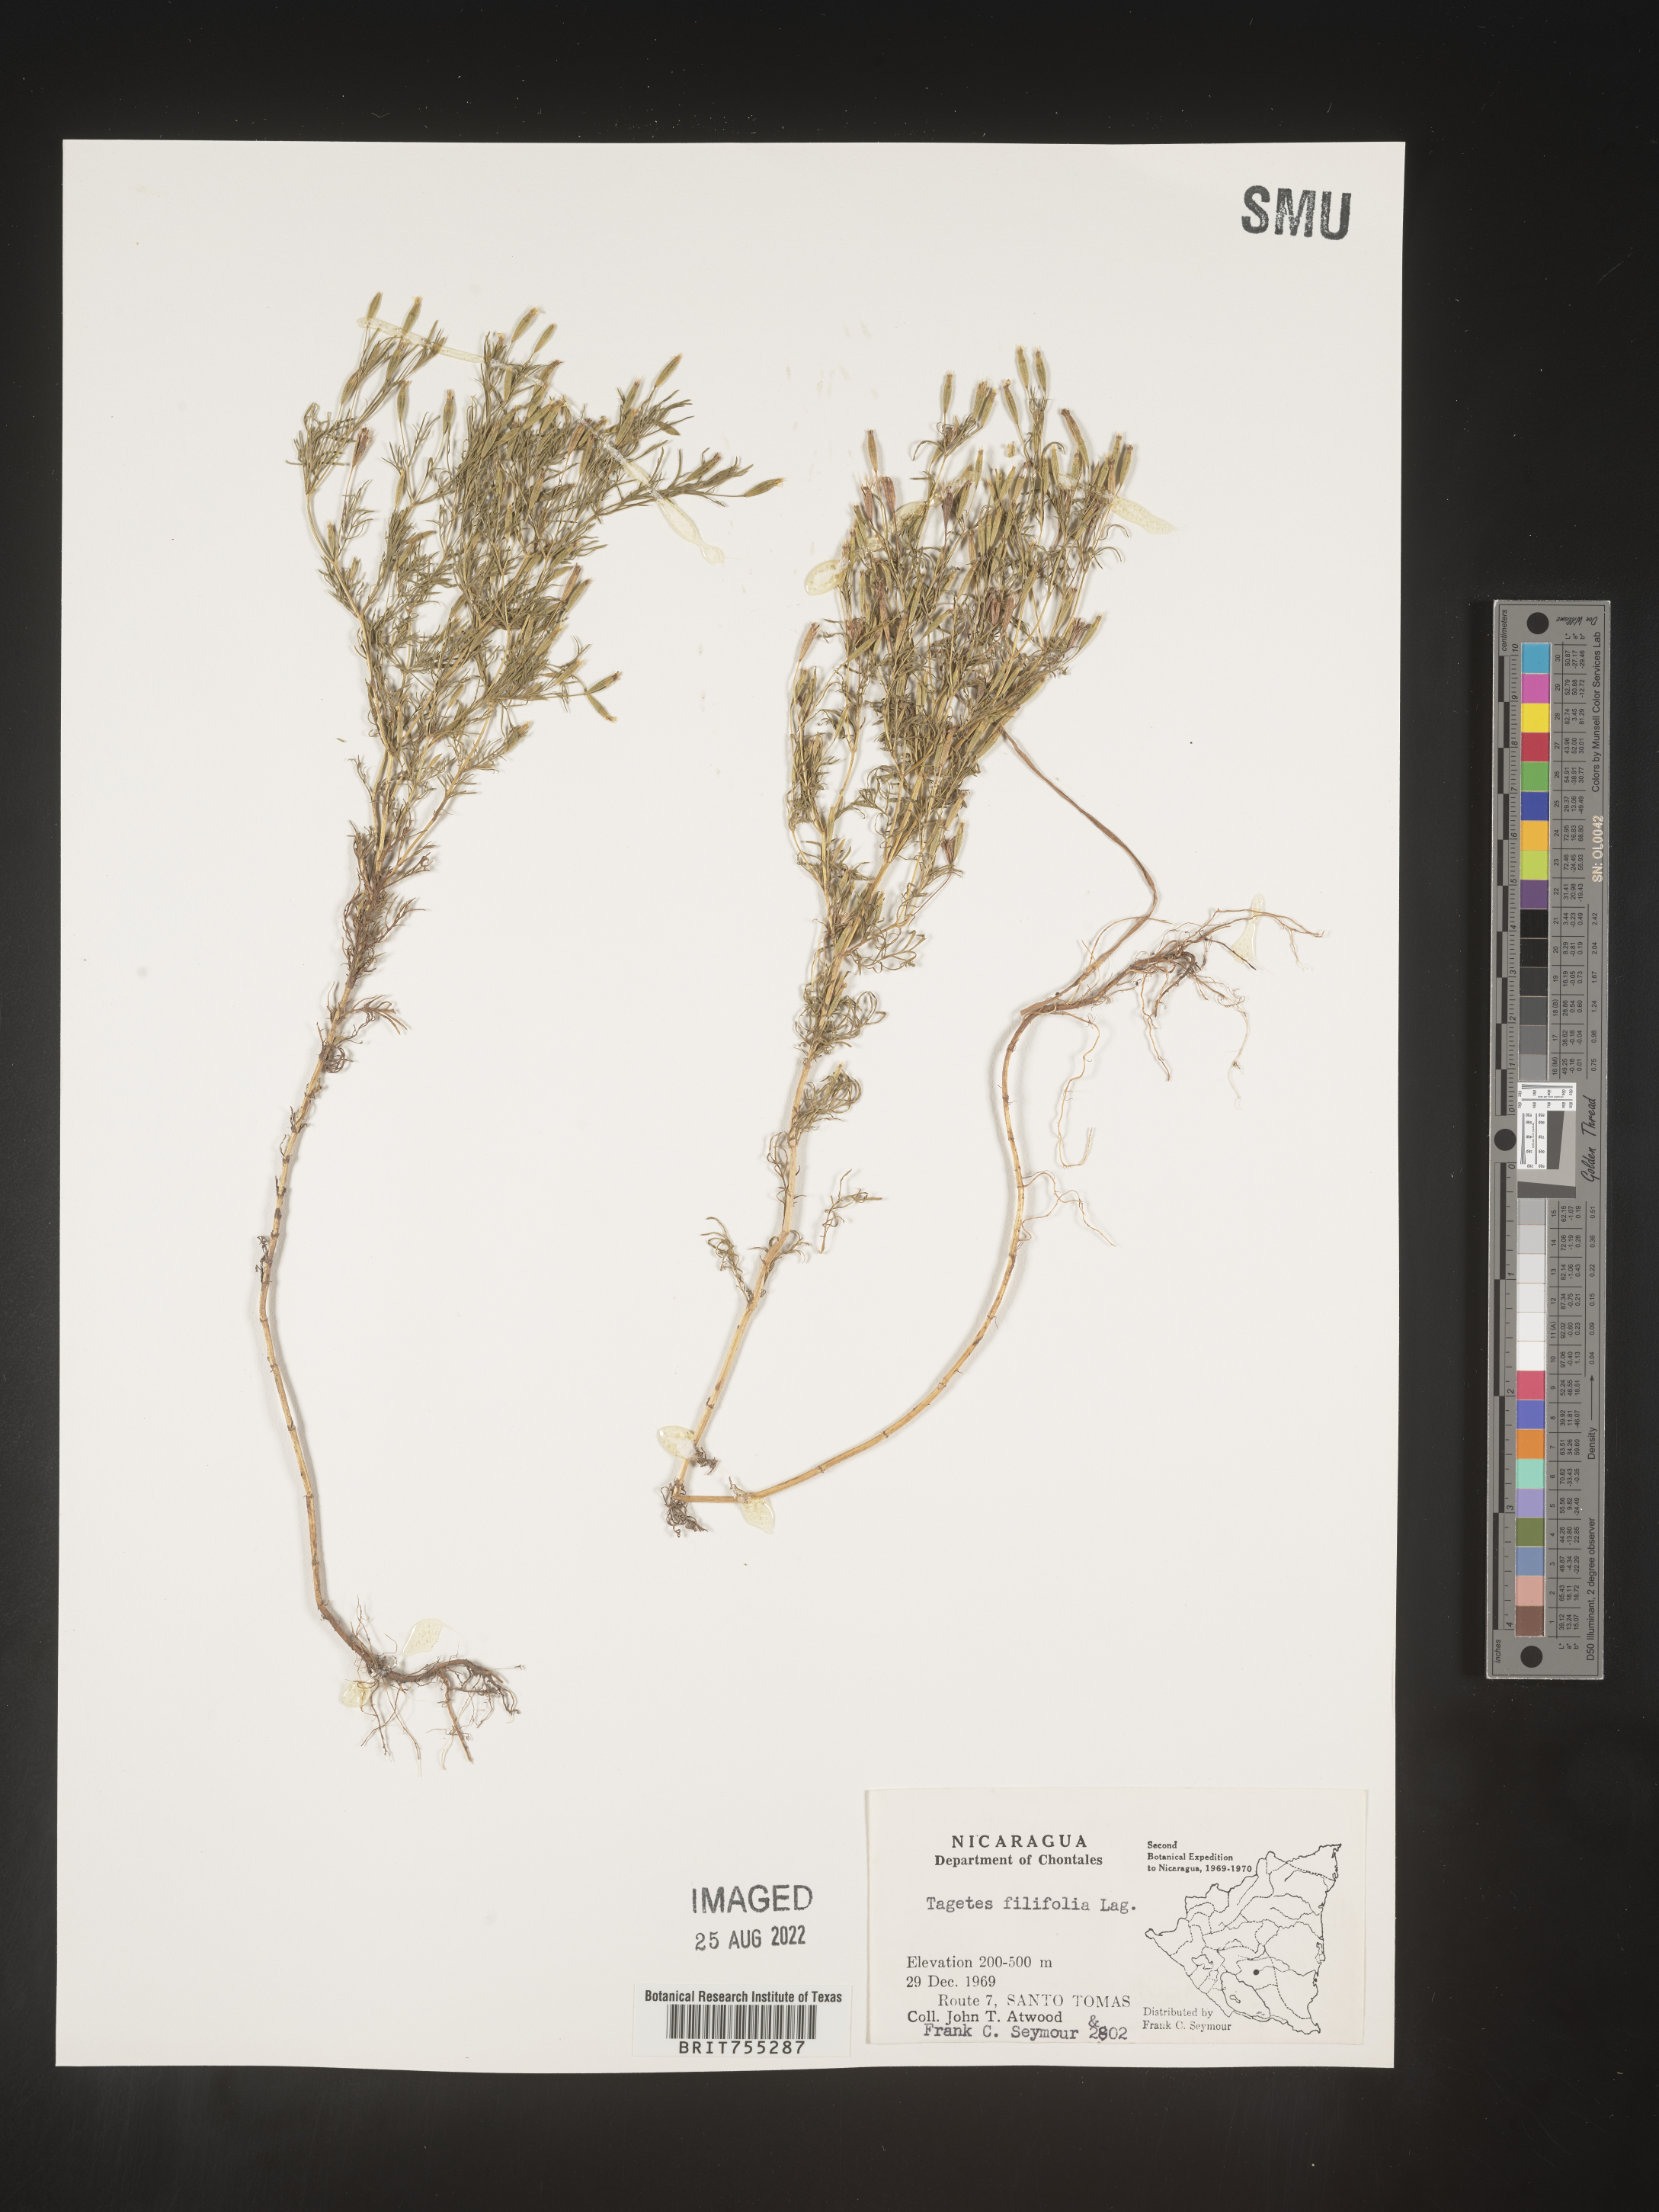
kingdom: Plantae
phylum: Tracheophyta
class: Magnoliopsida
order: Asterales
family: Asteraceae
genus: Tagetes
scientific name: Tagetes
